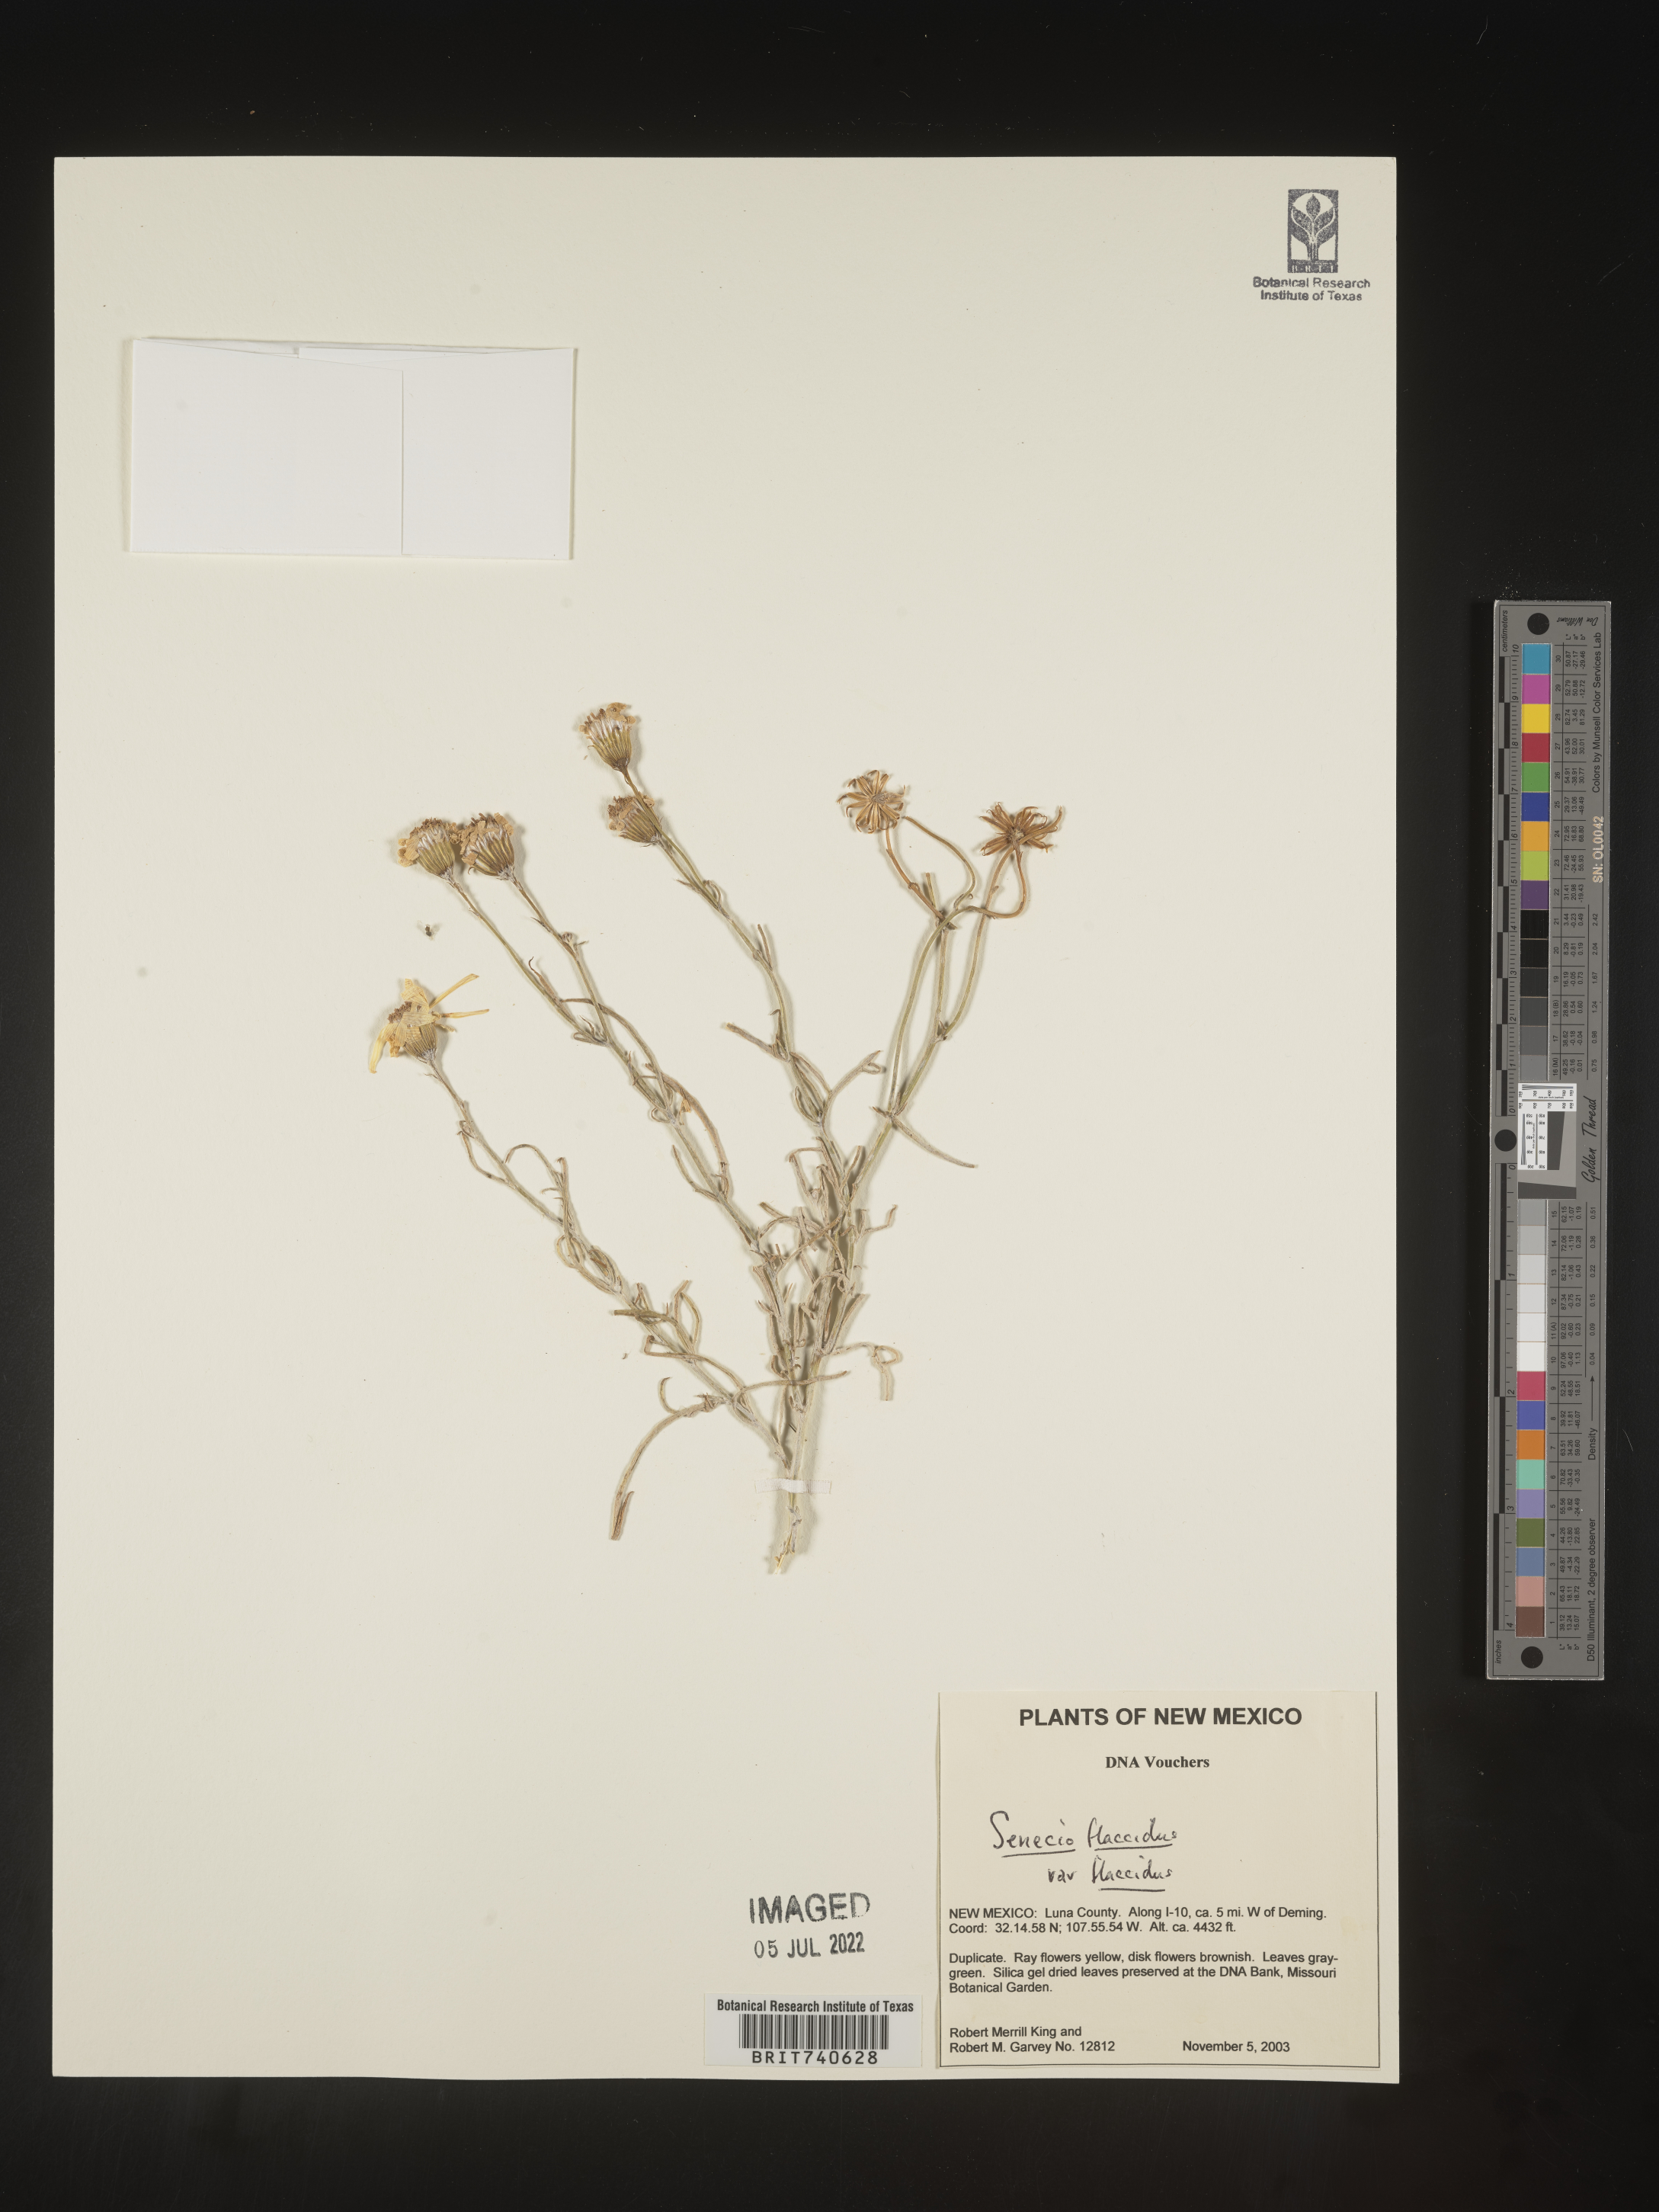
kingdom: Plantae
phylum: Tracheophyta
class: Magnoliopsida
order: Asterales
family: Asteraceae
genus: Senecio
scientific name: Senecio flaccidus
